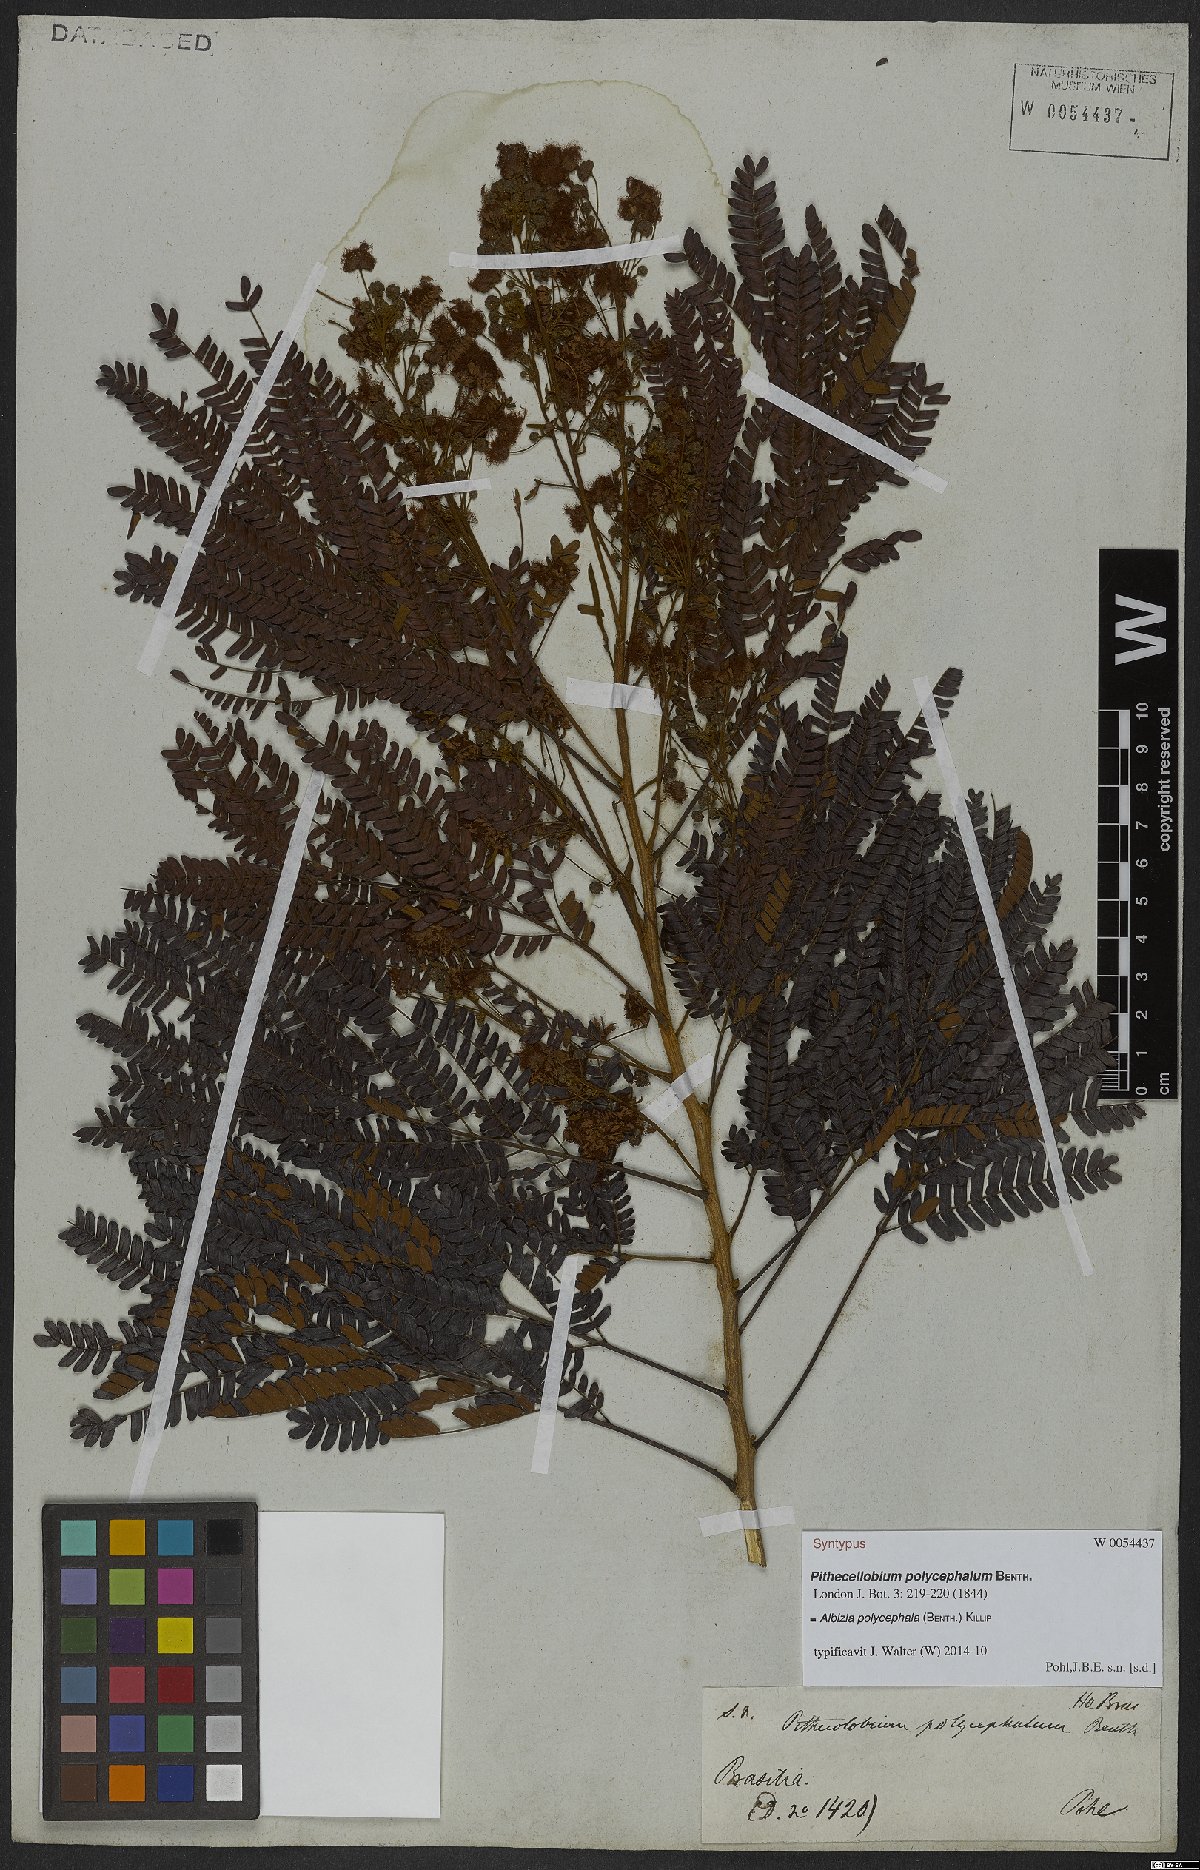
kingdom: Plantae
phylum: Tracheophyta
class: Magnoliopsida
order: Fabales
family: Fabaceae
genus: Albizia
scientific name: Albizia polycephala
